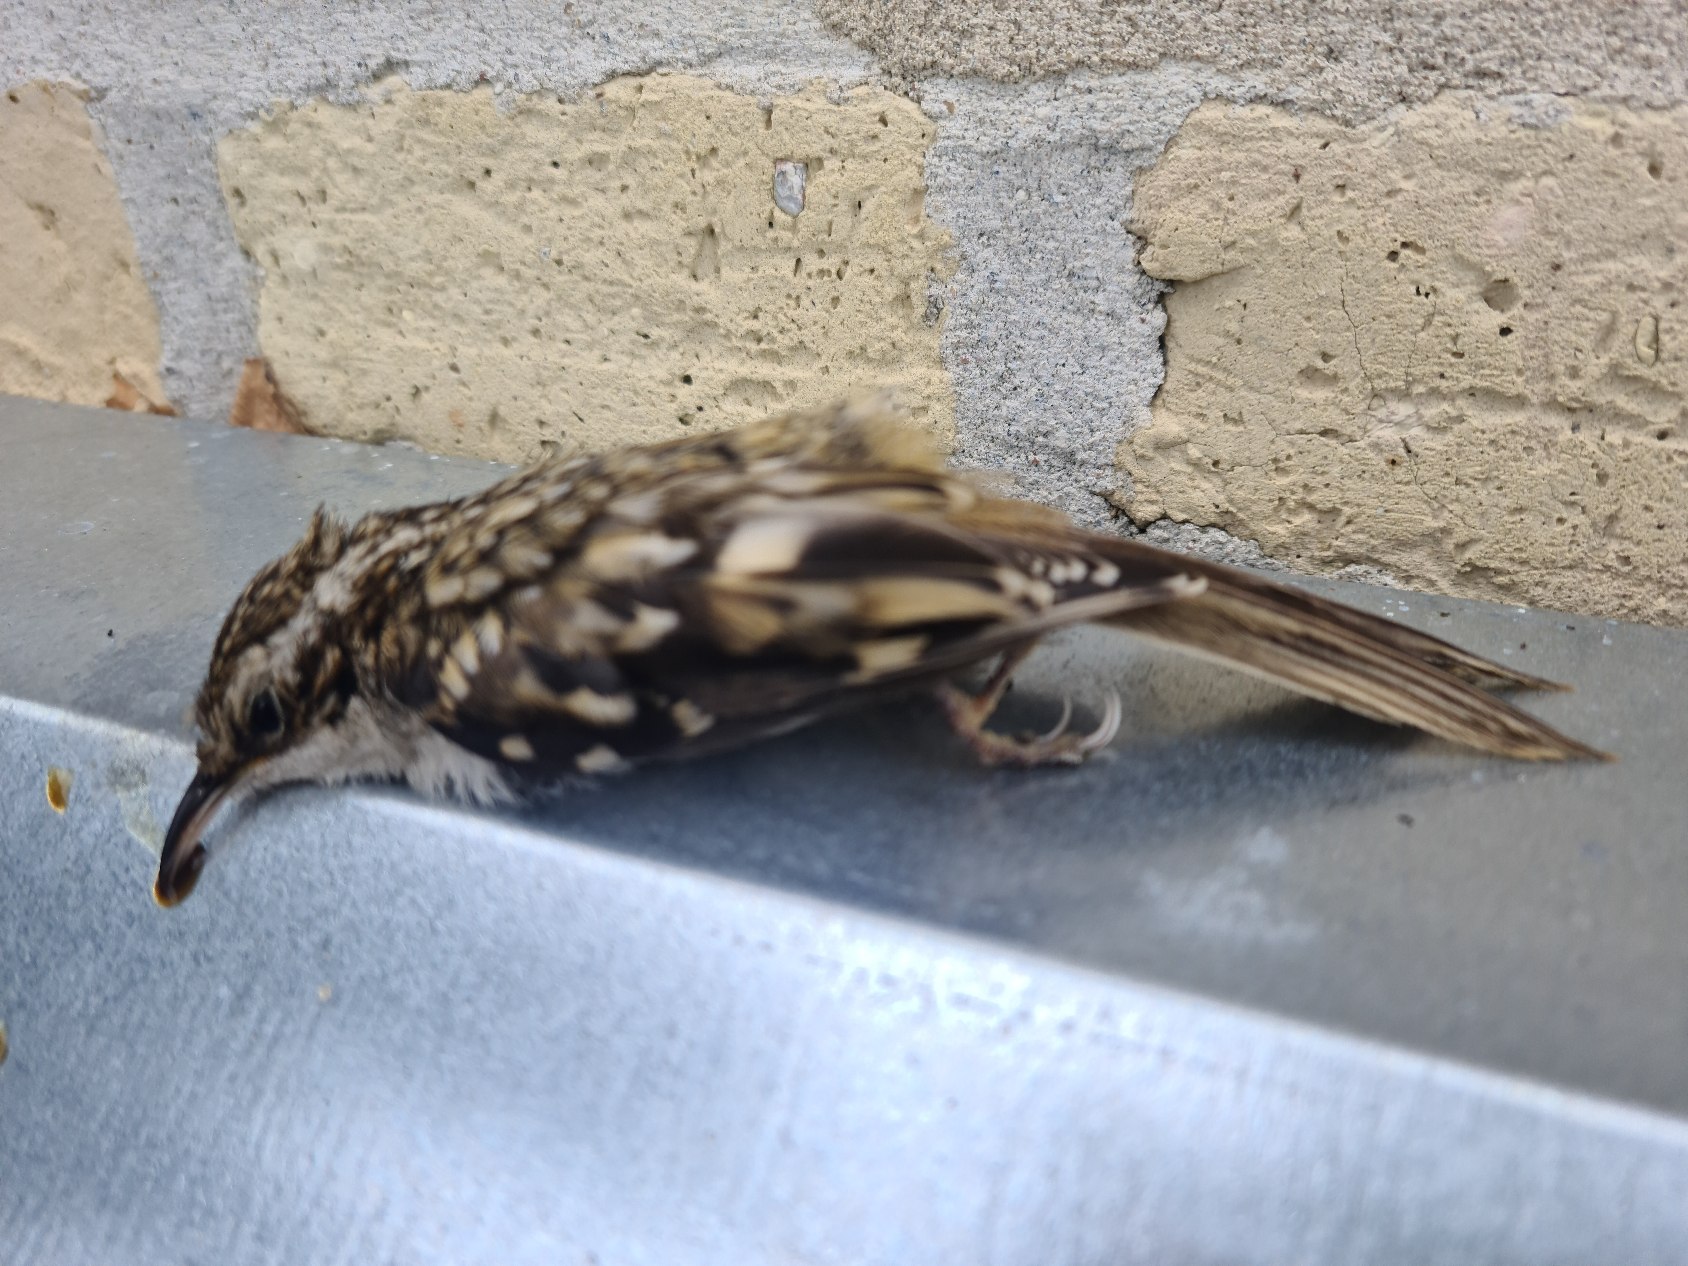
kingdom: Animalia
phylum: Chordata
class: Aves
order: Passeriformes
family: Certhiidae
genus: Certhia
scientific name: Certhia familiaris
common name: Træløber
